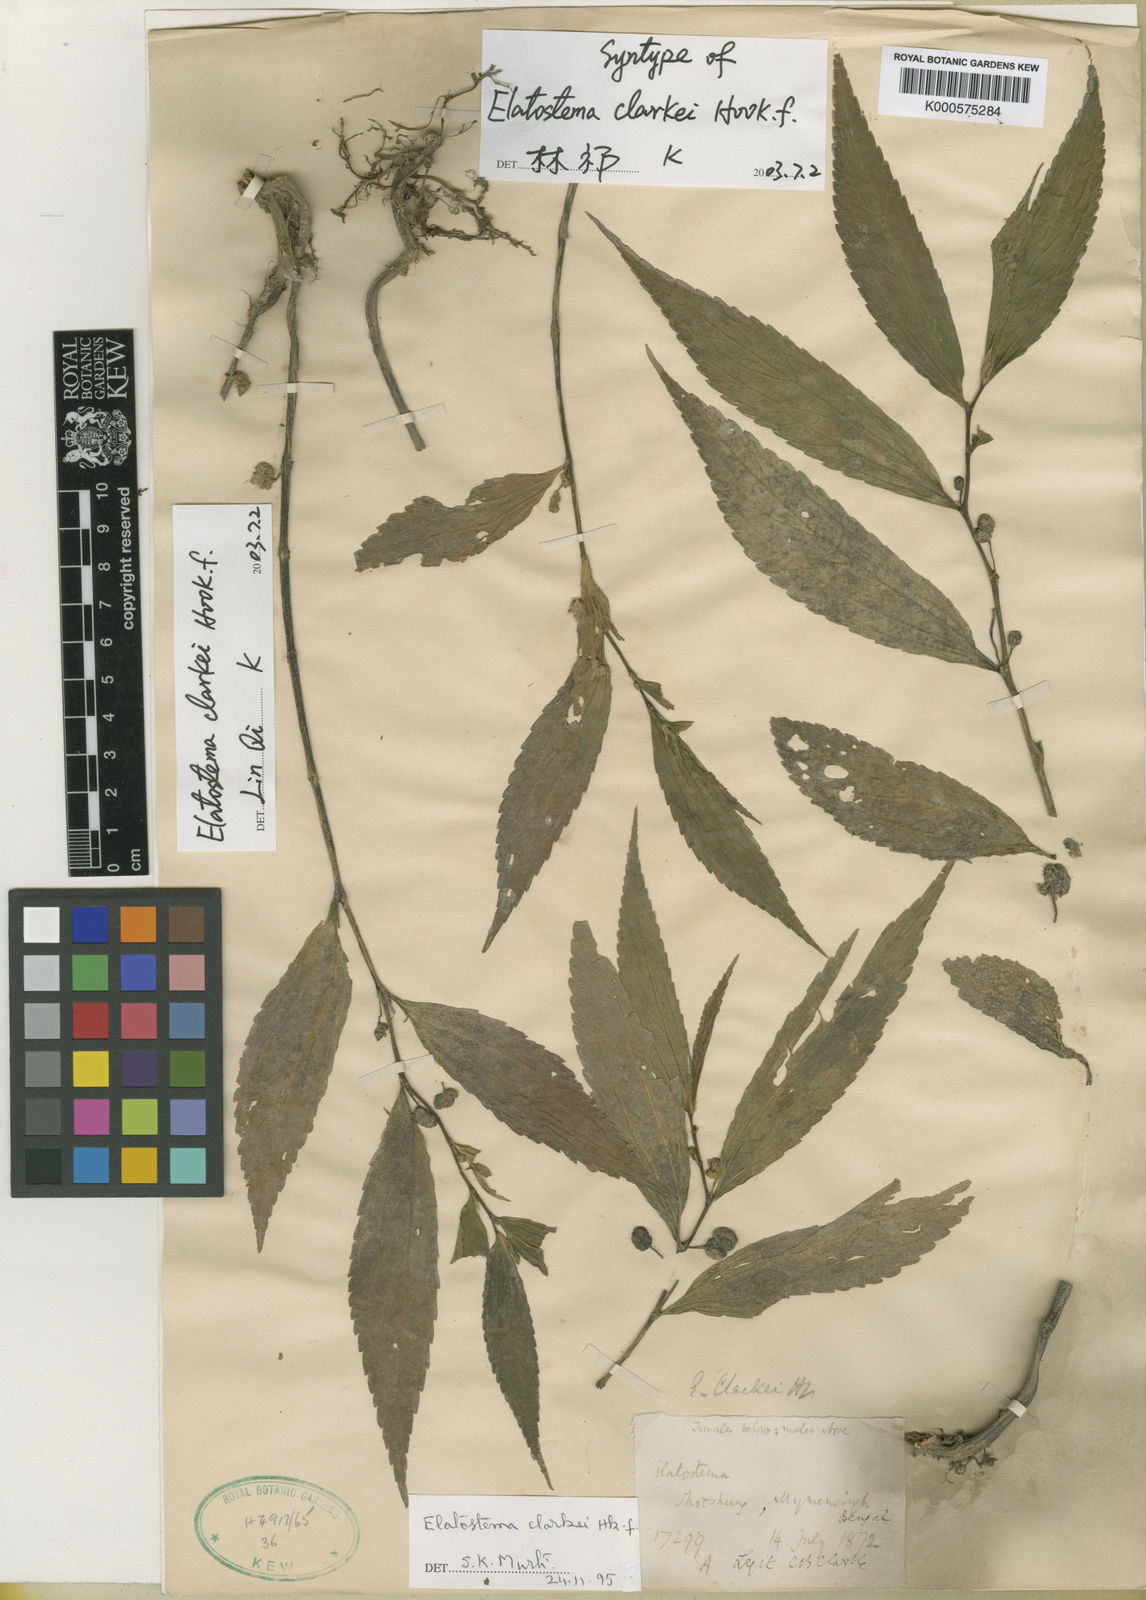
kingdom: Plantae
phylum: Tracheophyta
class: Magnoliopsida
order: Rosales
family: Urticaceae
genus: Elatostema
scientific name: Elatostema clarkei
